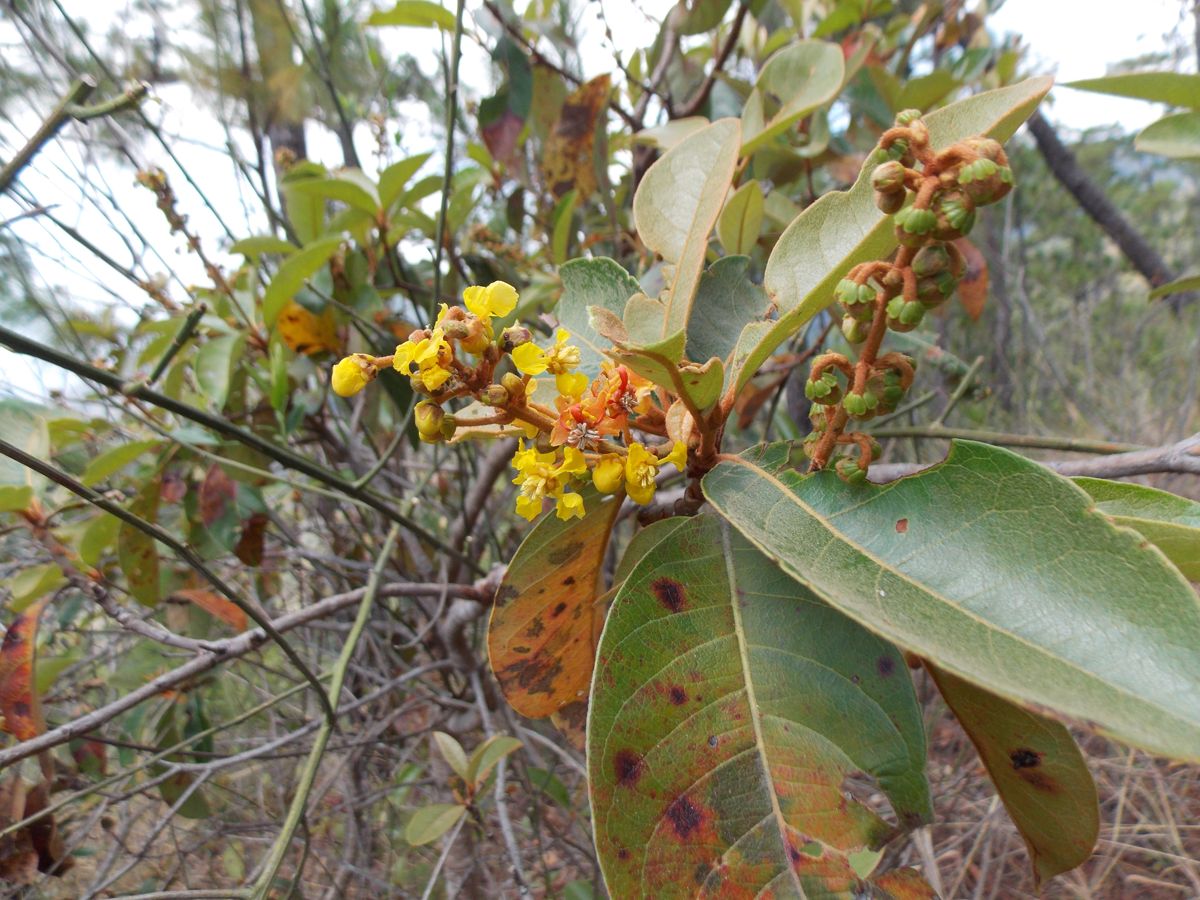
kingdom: Plantae
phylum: Tracheophyta
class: Magnoliopsida
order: Malpighiales
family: Malpighiaceae
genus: Byrsonima
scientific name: Byrsonima crassifolia
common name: Golden spoon
